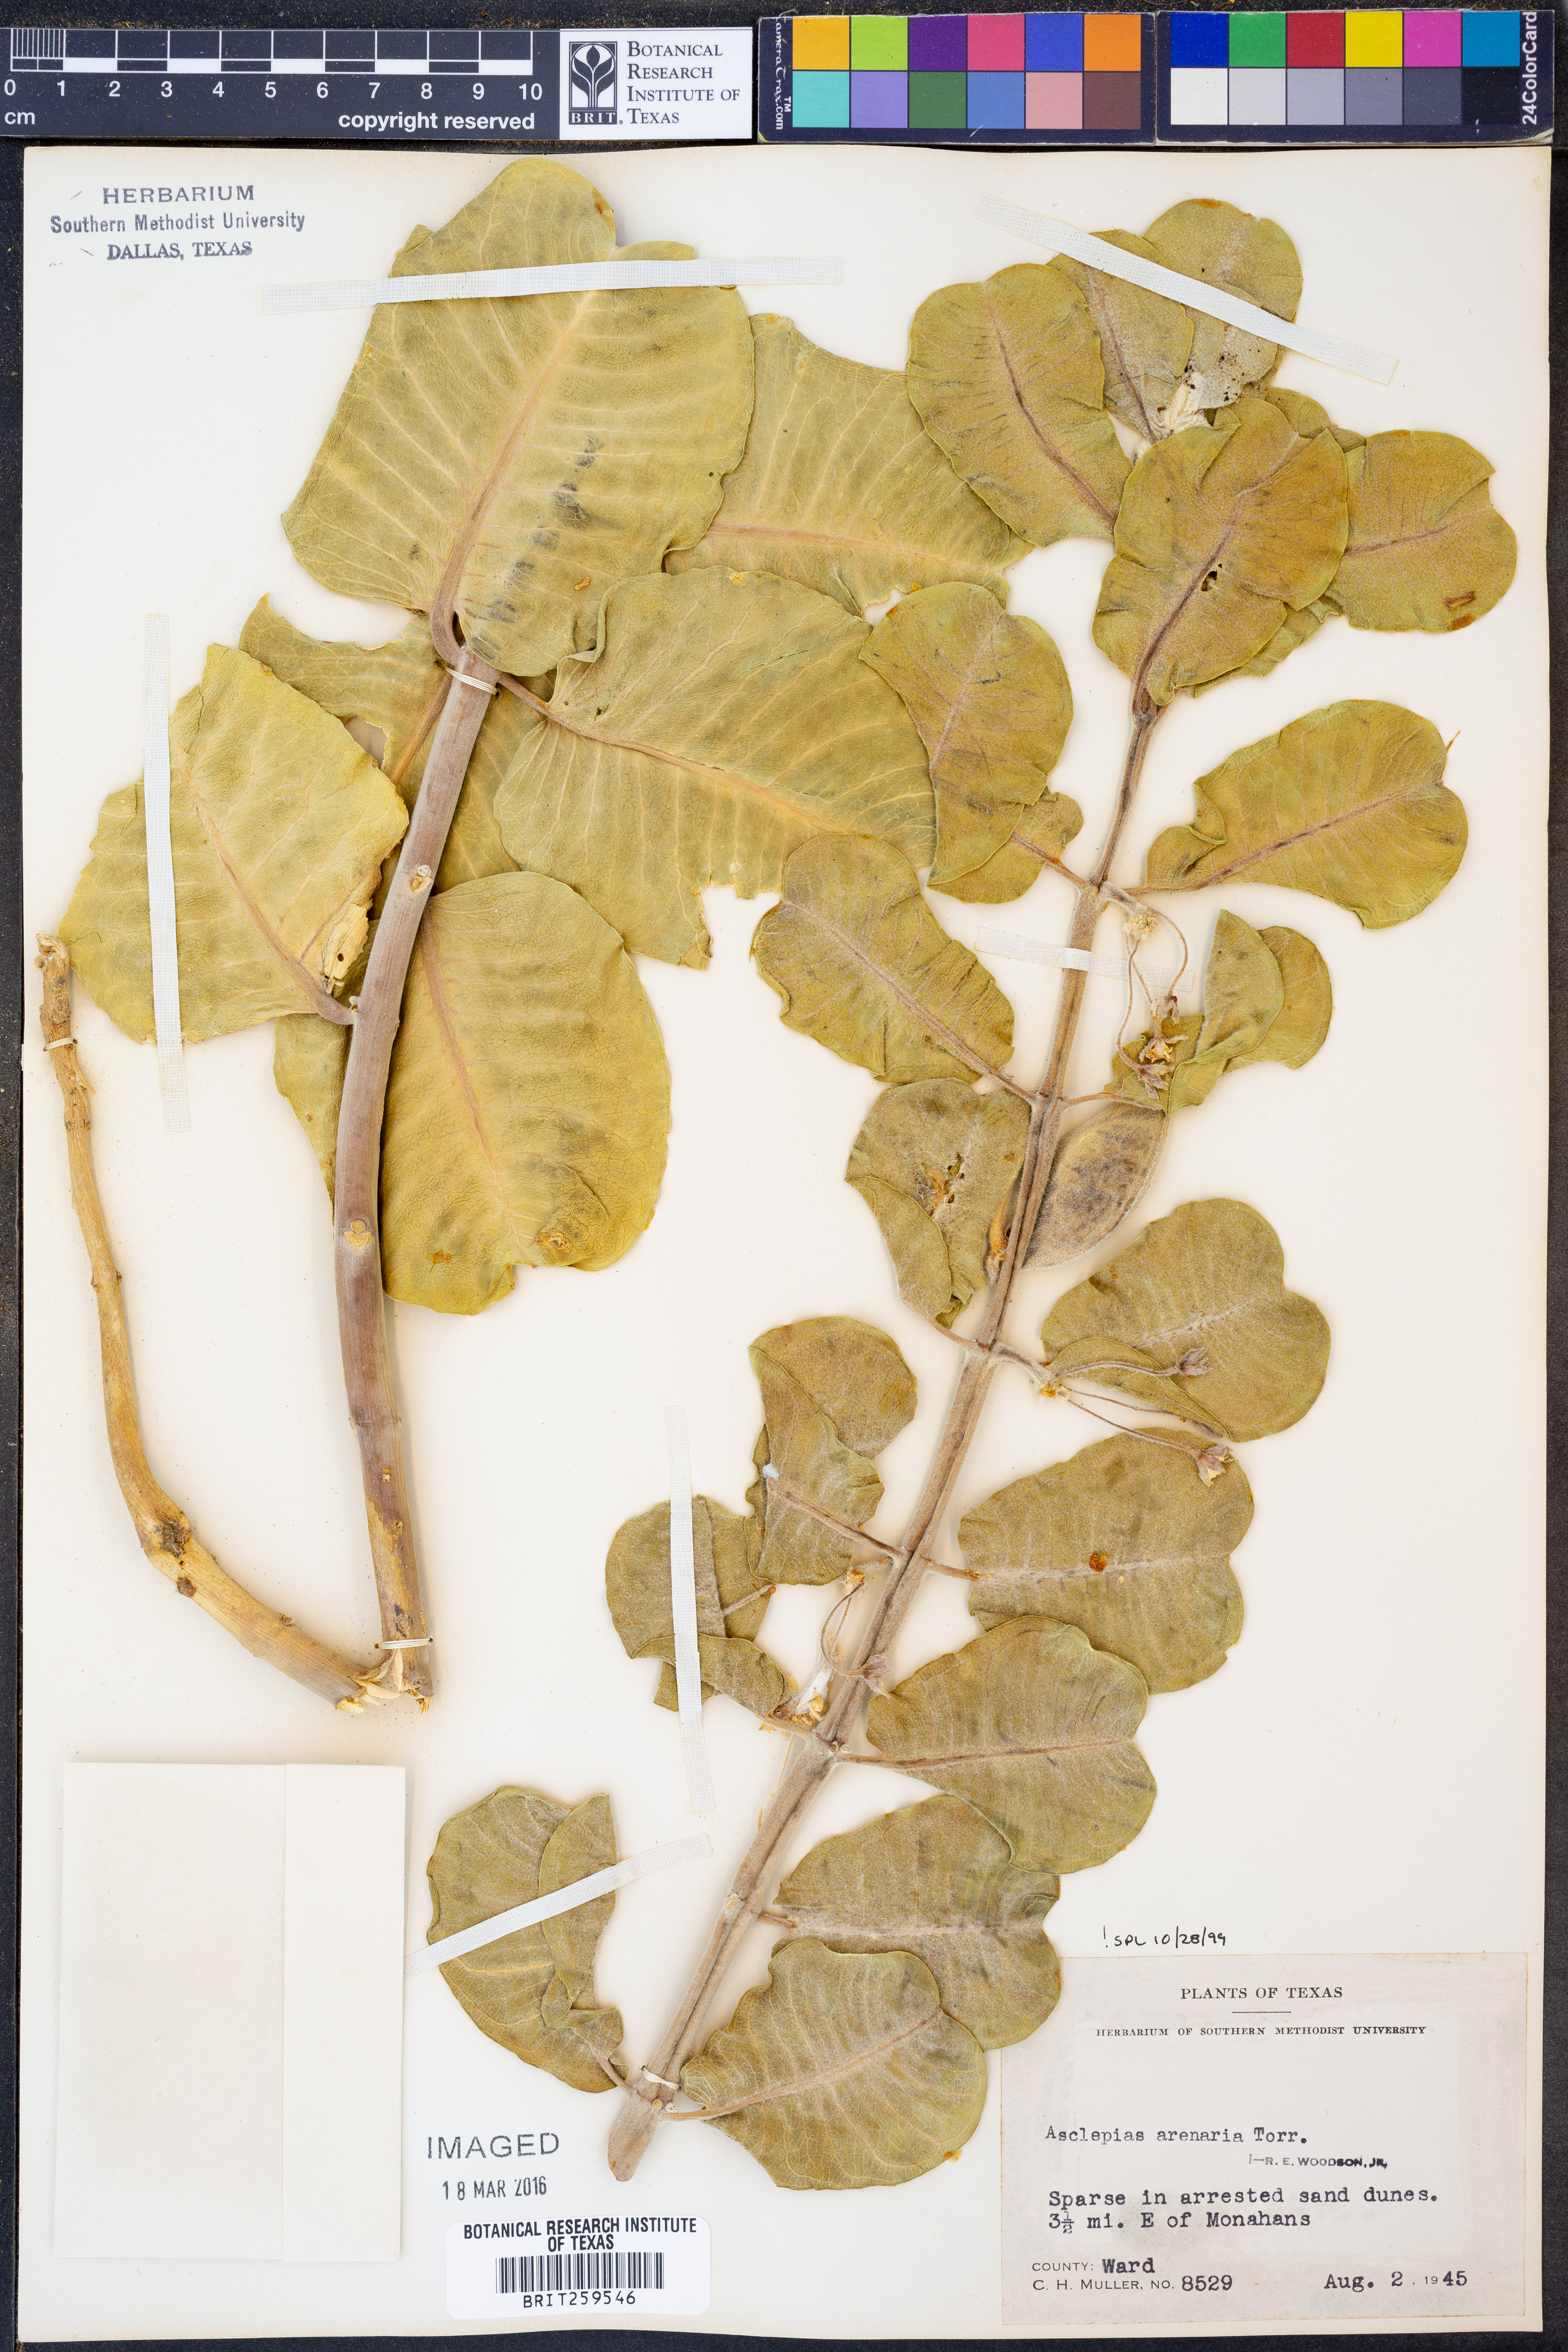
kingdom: Plantae
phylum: Tracheophyta
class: Magnoliopsida
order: Gentianales
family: Apocynaceae
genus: Asclepias
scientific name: Asclepias arenaria
